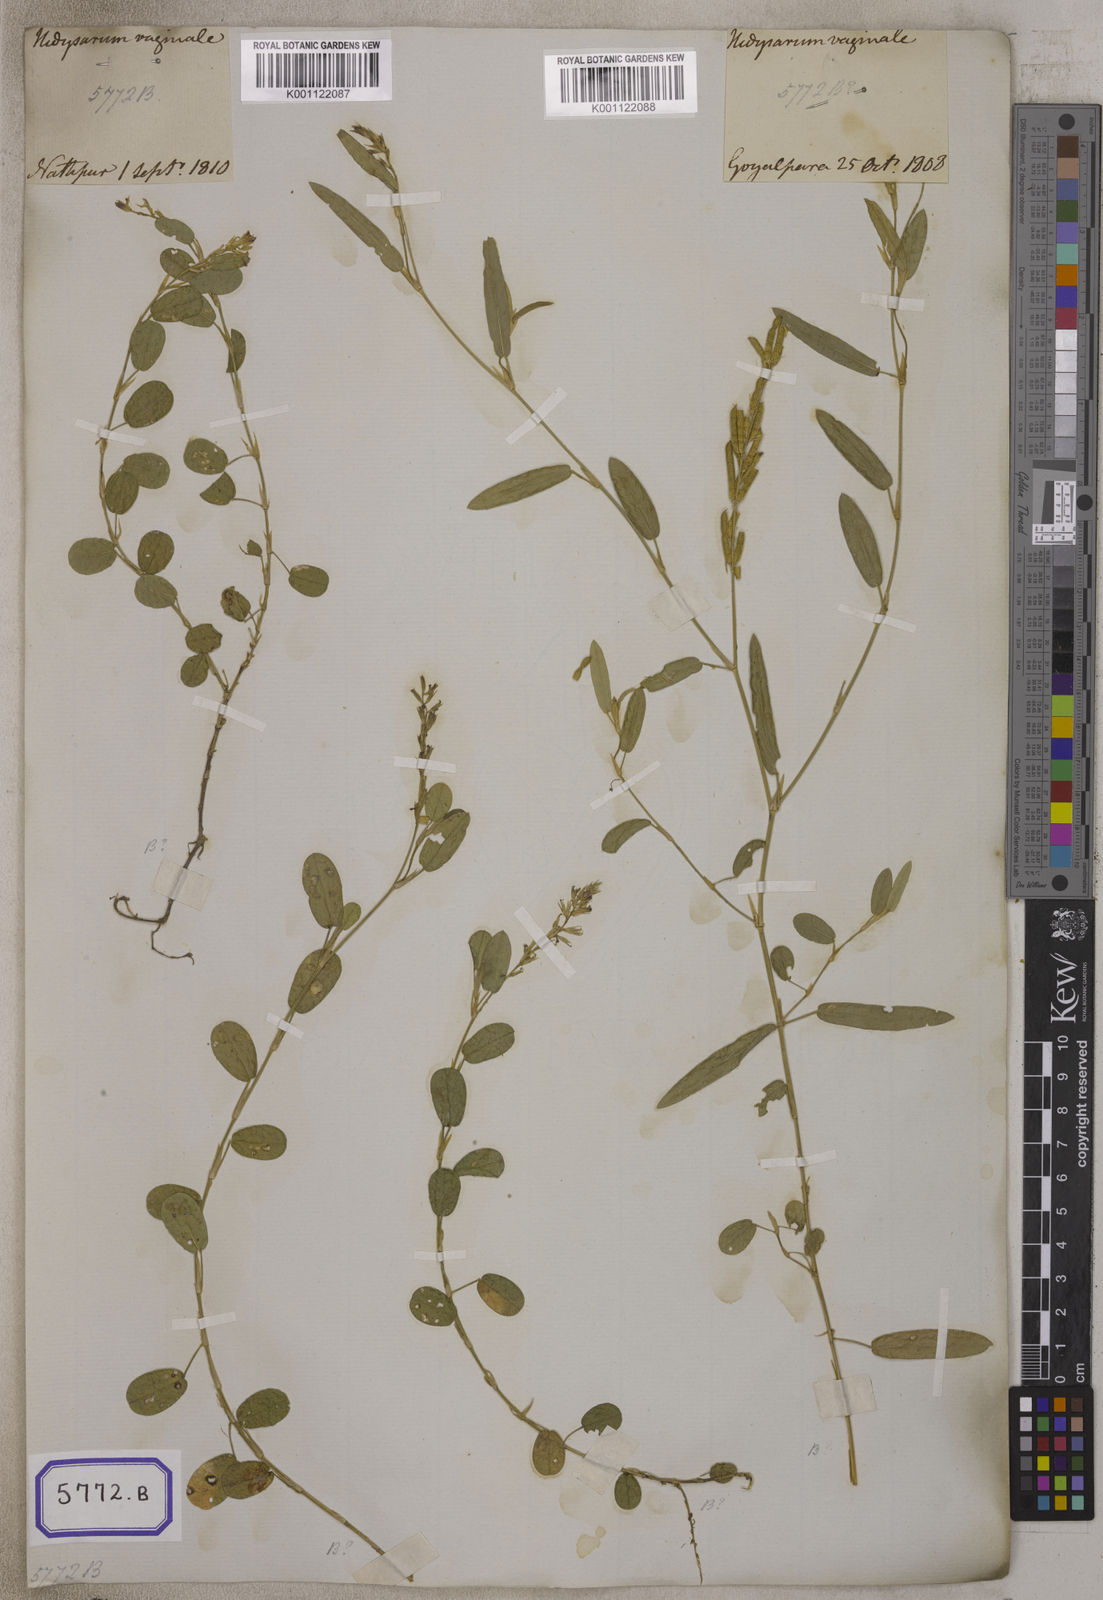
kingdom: Plantae
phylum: Tracheophyta
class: Magnoliopsida
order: Fabales
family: Fabaceae
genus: Alysicarpus
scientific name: Alysicarpus vaginalis
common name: White moneywort
